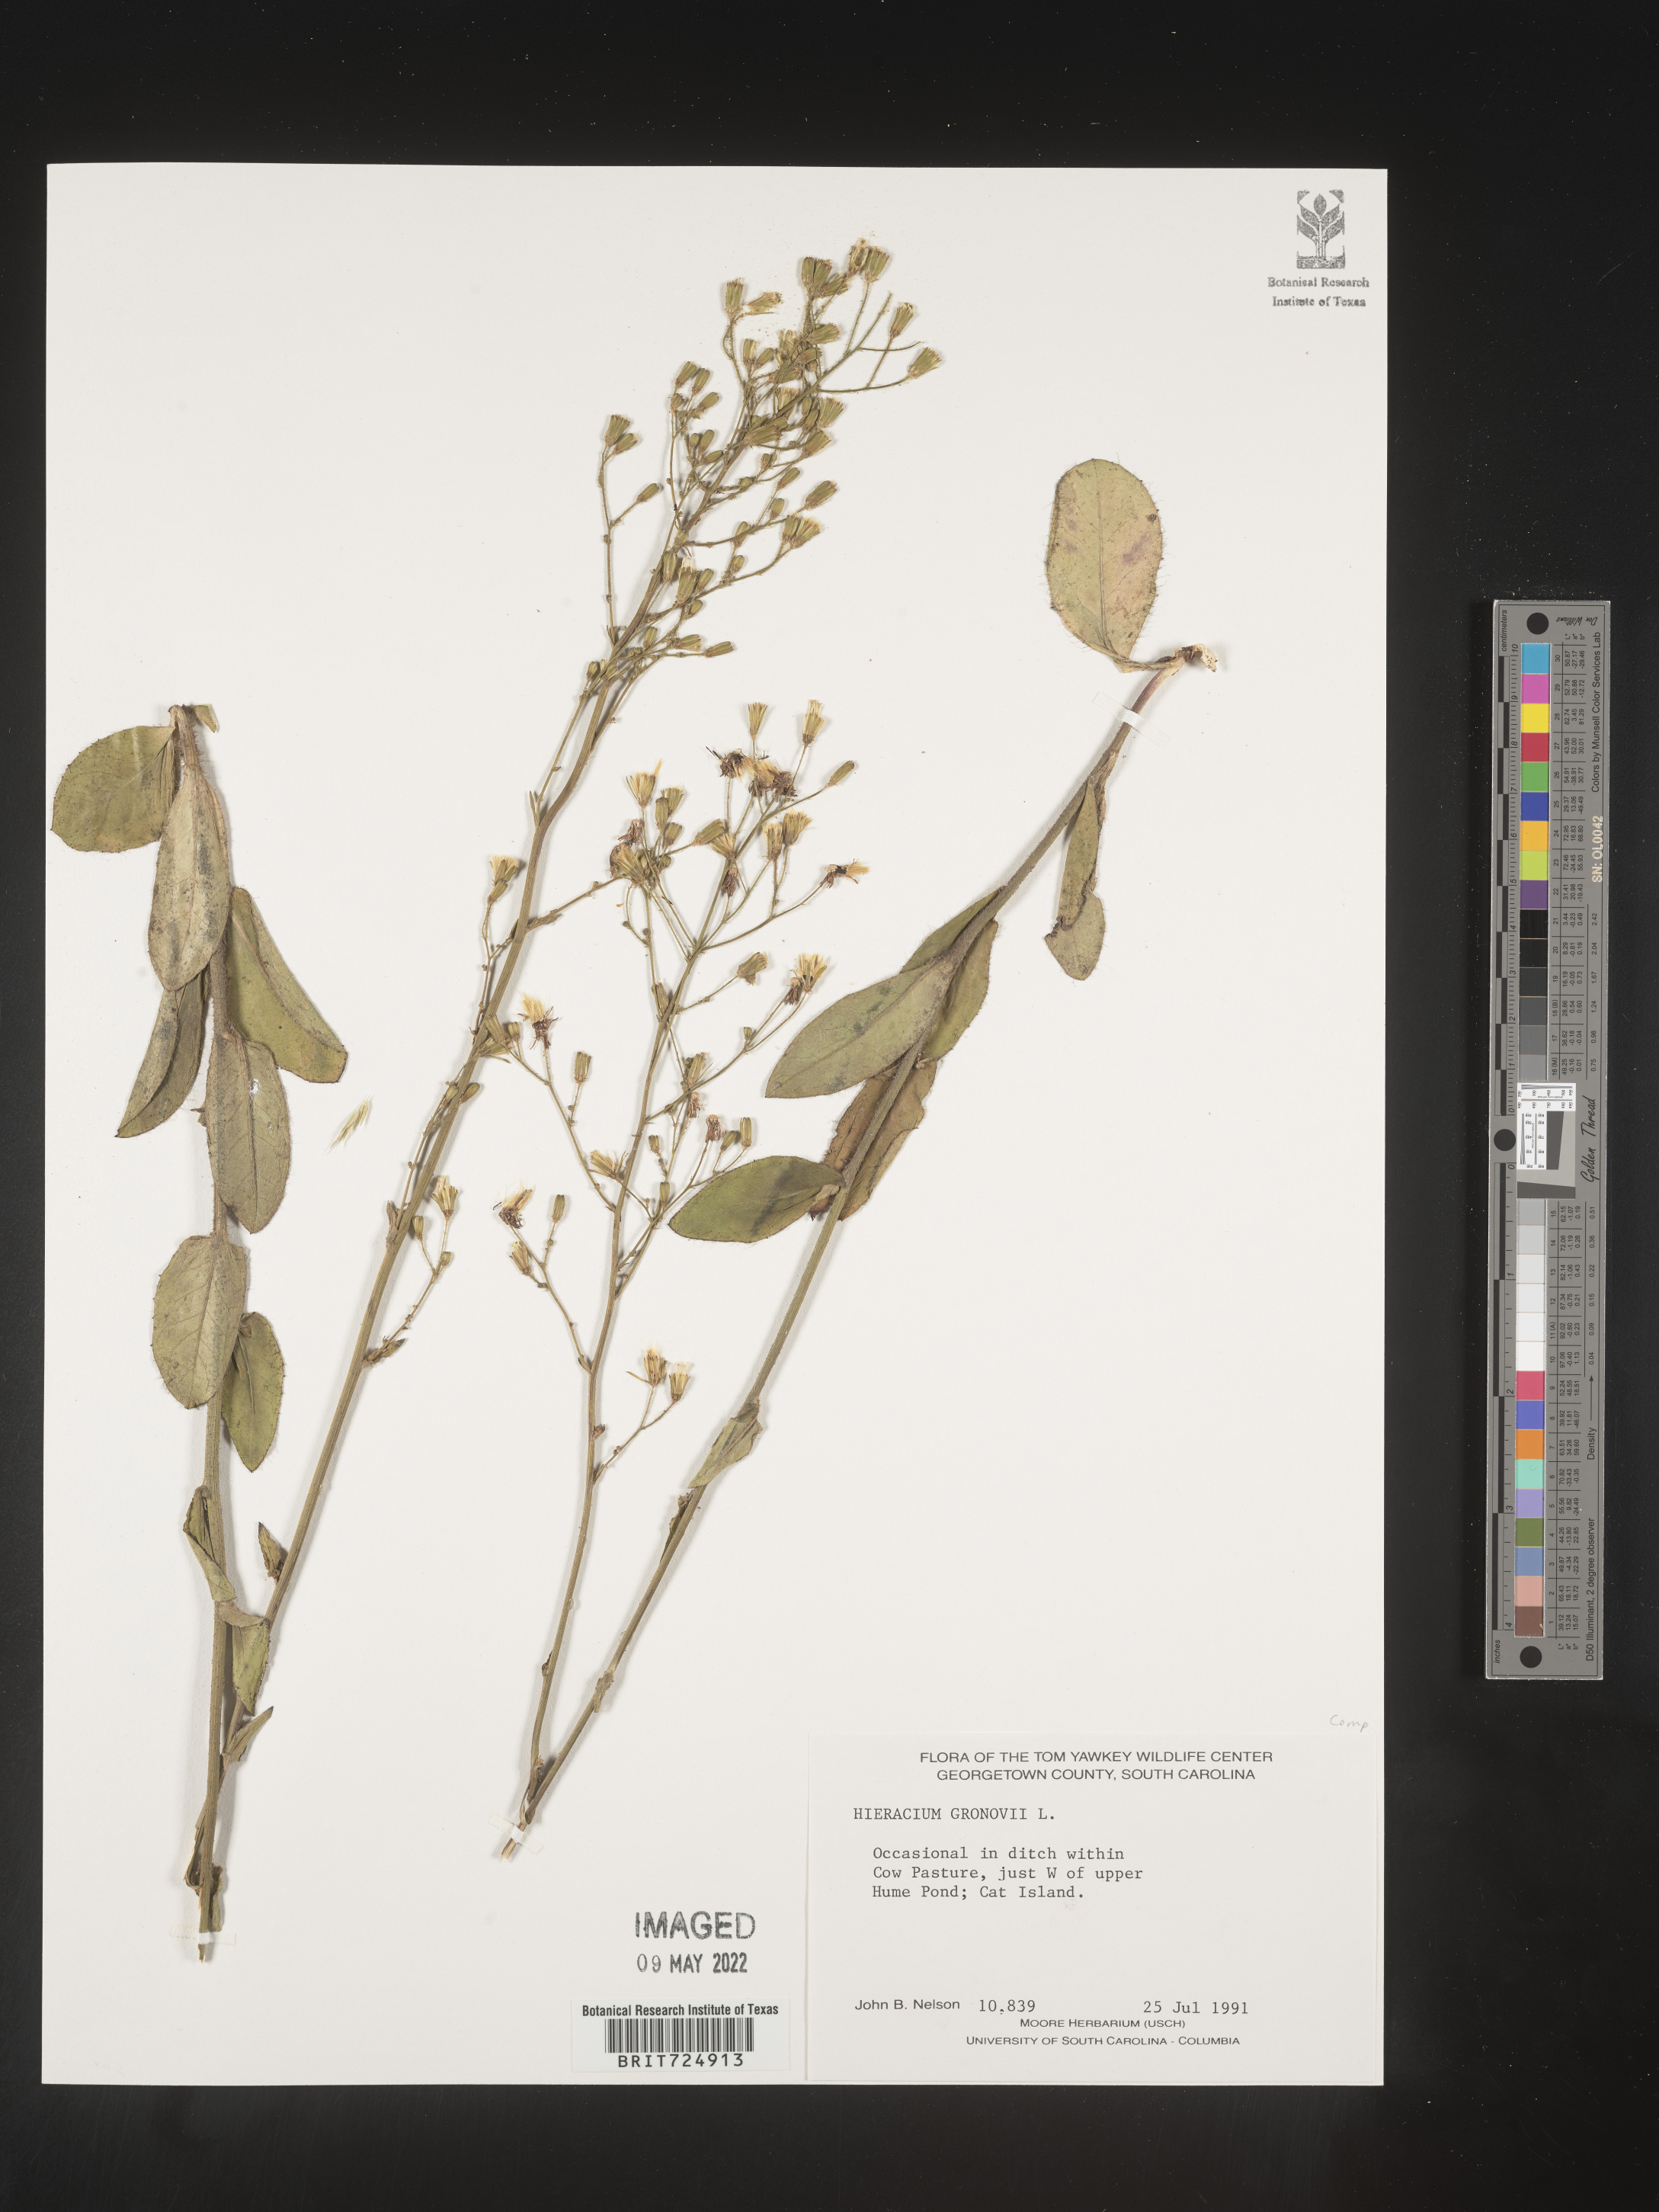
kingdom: Plantae
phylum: Tracheophyta
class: Magnoliopsida
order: Asterales
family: Asteraceae
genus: Hieracium
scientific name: Hieracium gronovii
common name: Beaked hawkweed
